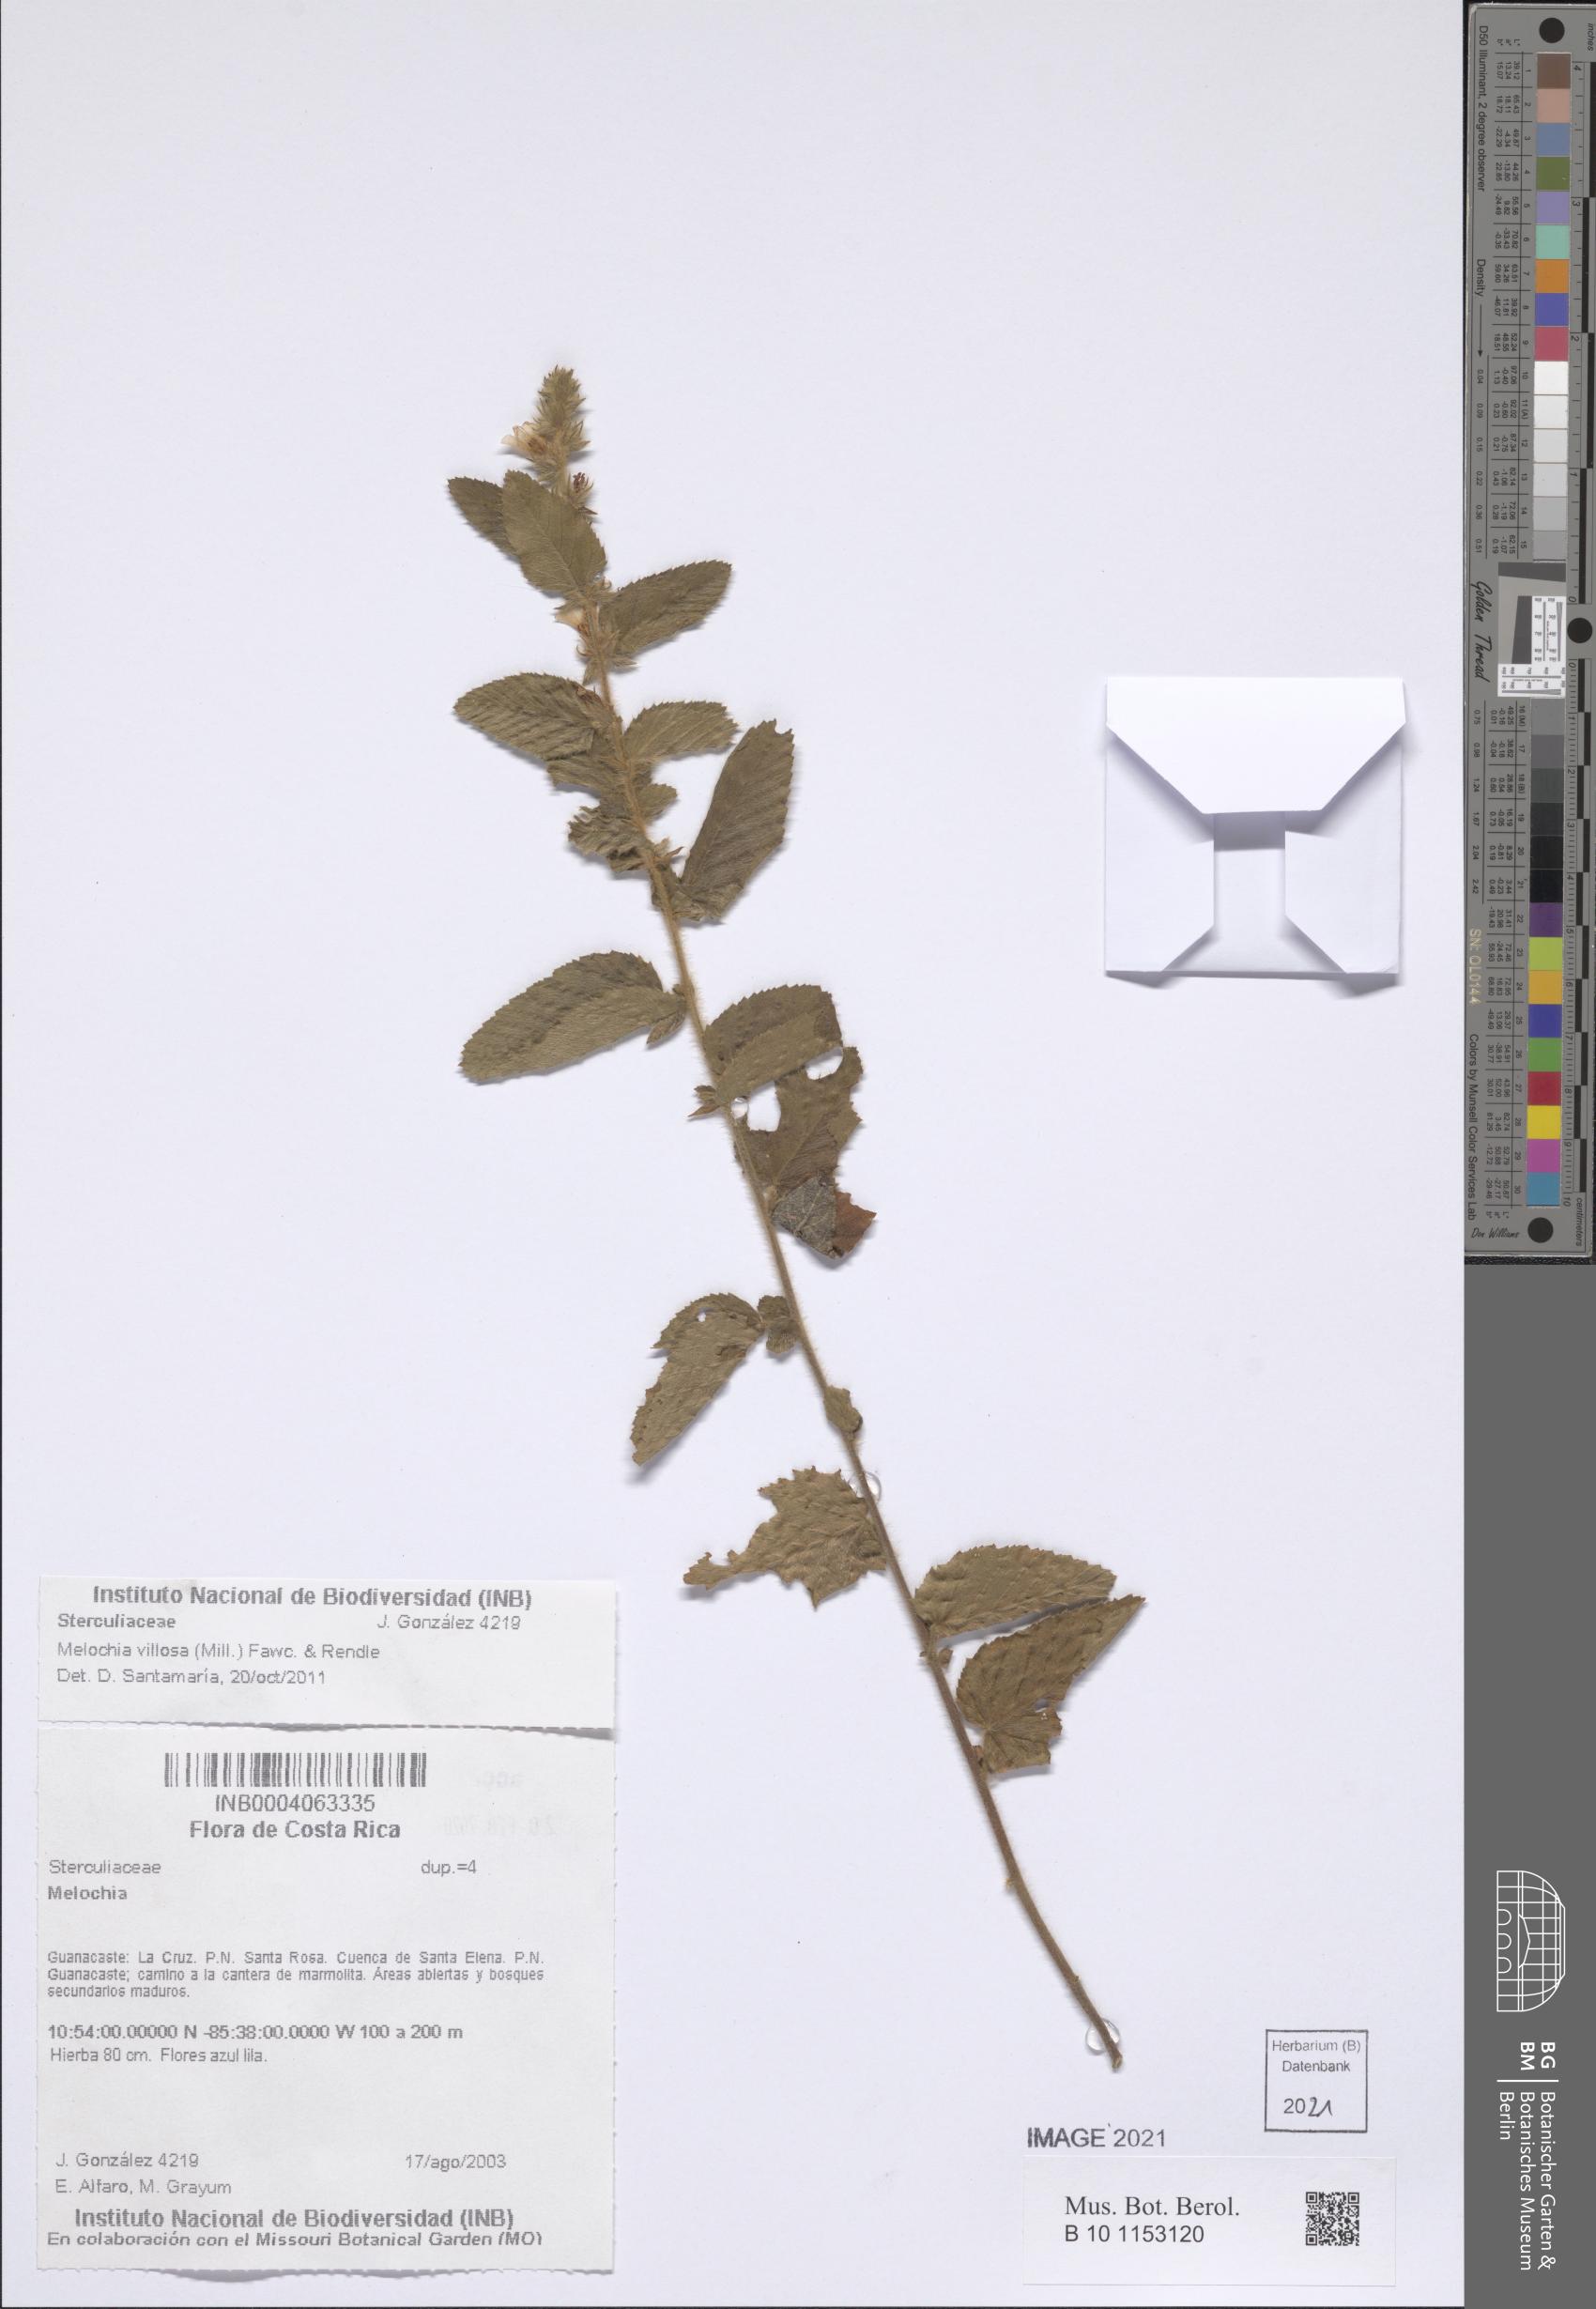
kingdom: Plantae
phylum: Tracheophyta
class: Magnoliopsida
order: Malvales
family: Malvaceae
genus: Melochia
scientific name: Melochia spicata
